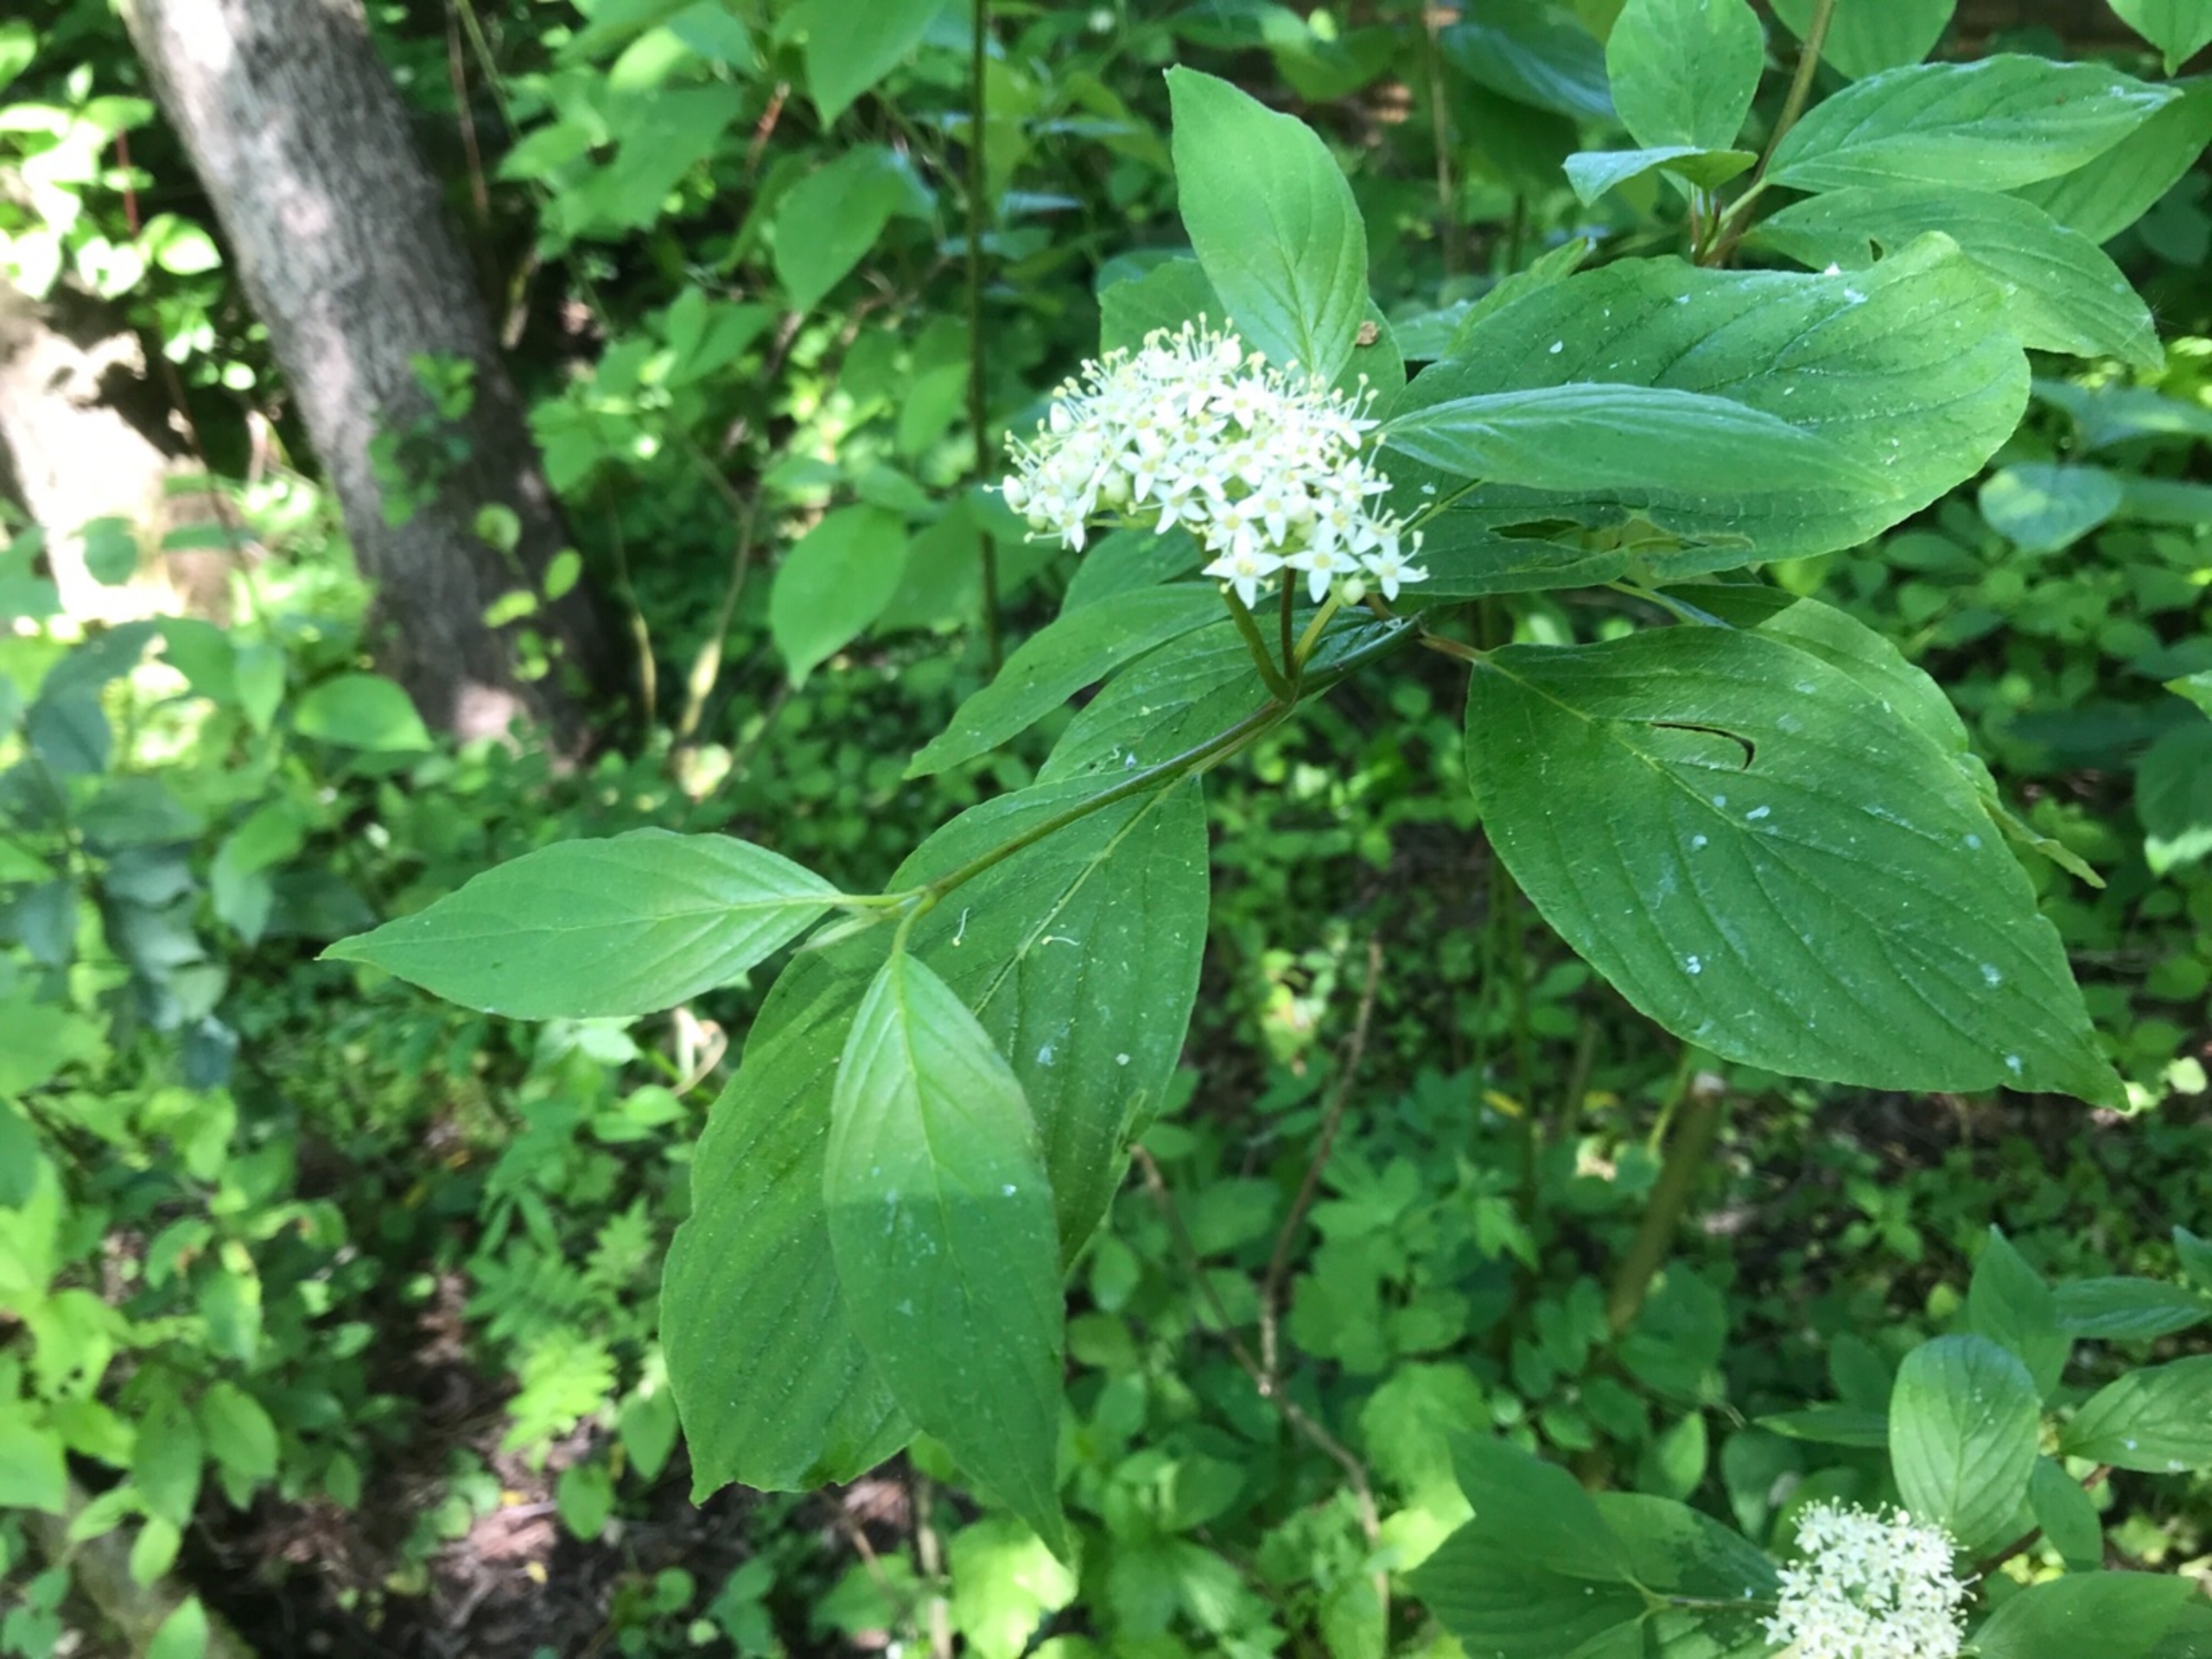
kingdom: Plantae
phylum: Tracheophyta
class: Magnoliopsida
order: Cornales
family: Cornaceae
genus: Cornus
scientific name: Cornus sericea
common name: Krybende kornel
